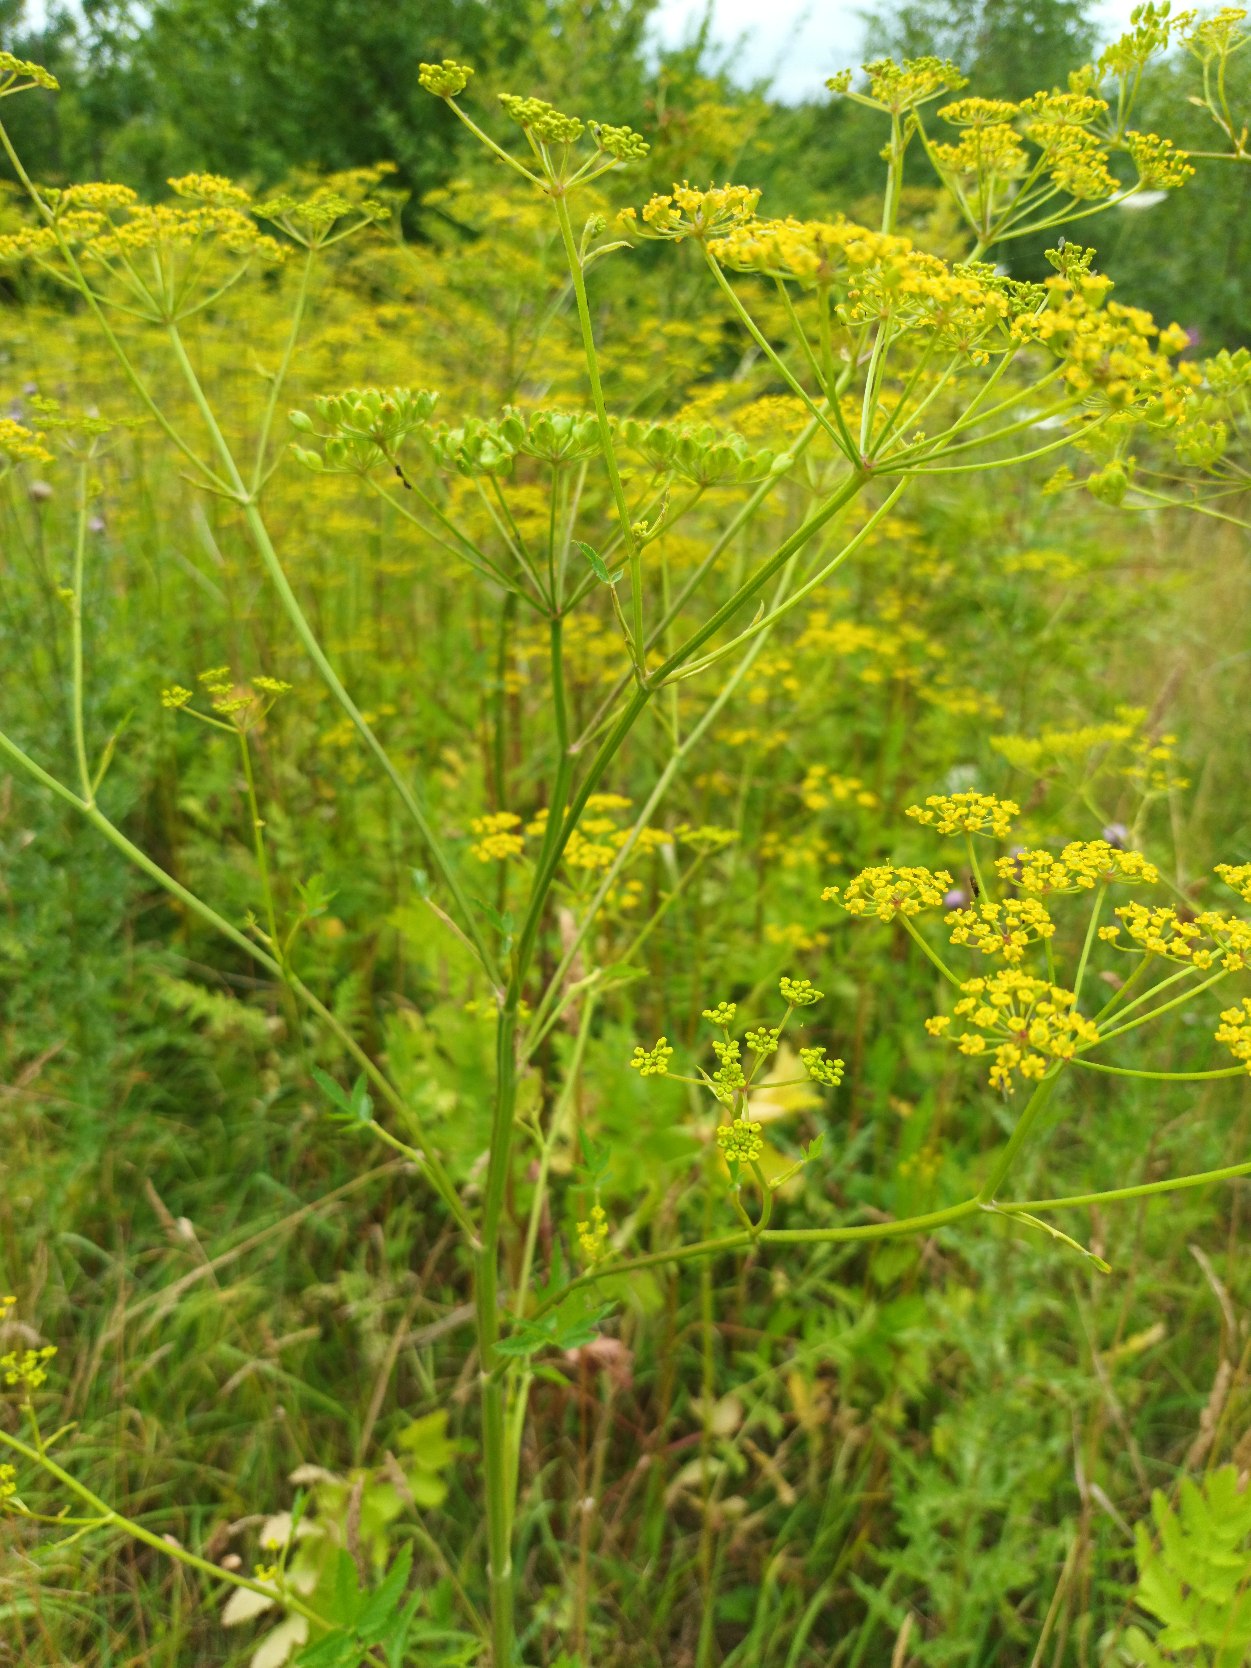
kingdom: Plantae
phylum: Tracheophyta
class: Magnoliopsida
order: Apiales
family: Apiaceae
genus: Pastinaca
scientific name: Pastinaca sativa
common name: Pastinak
